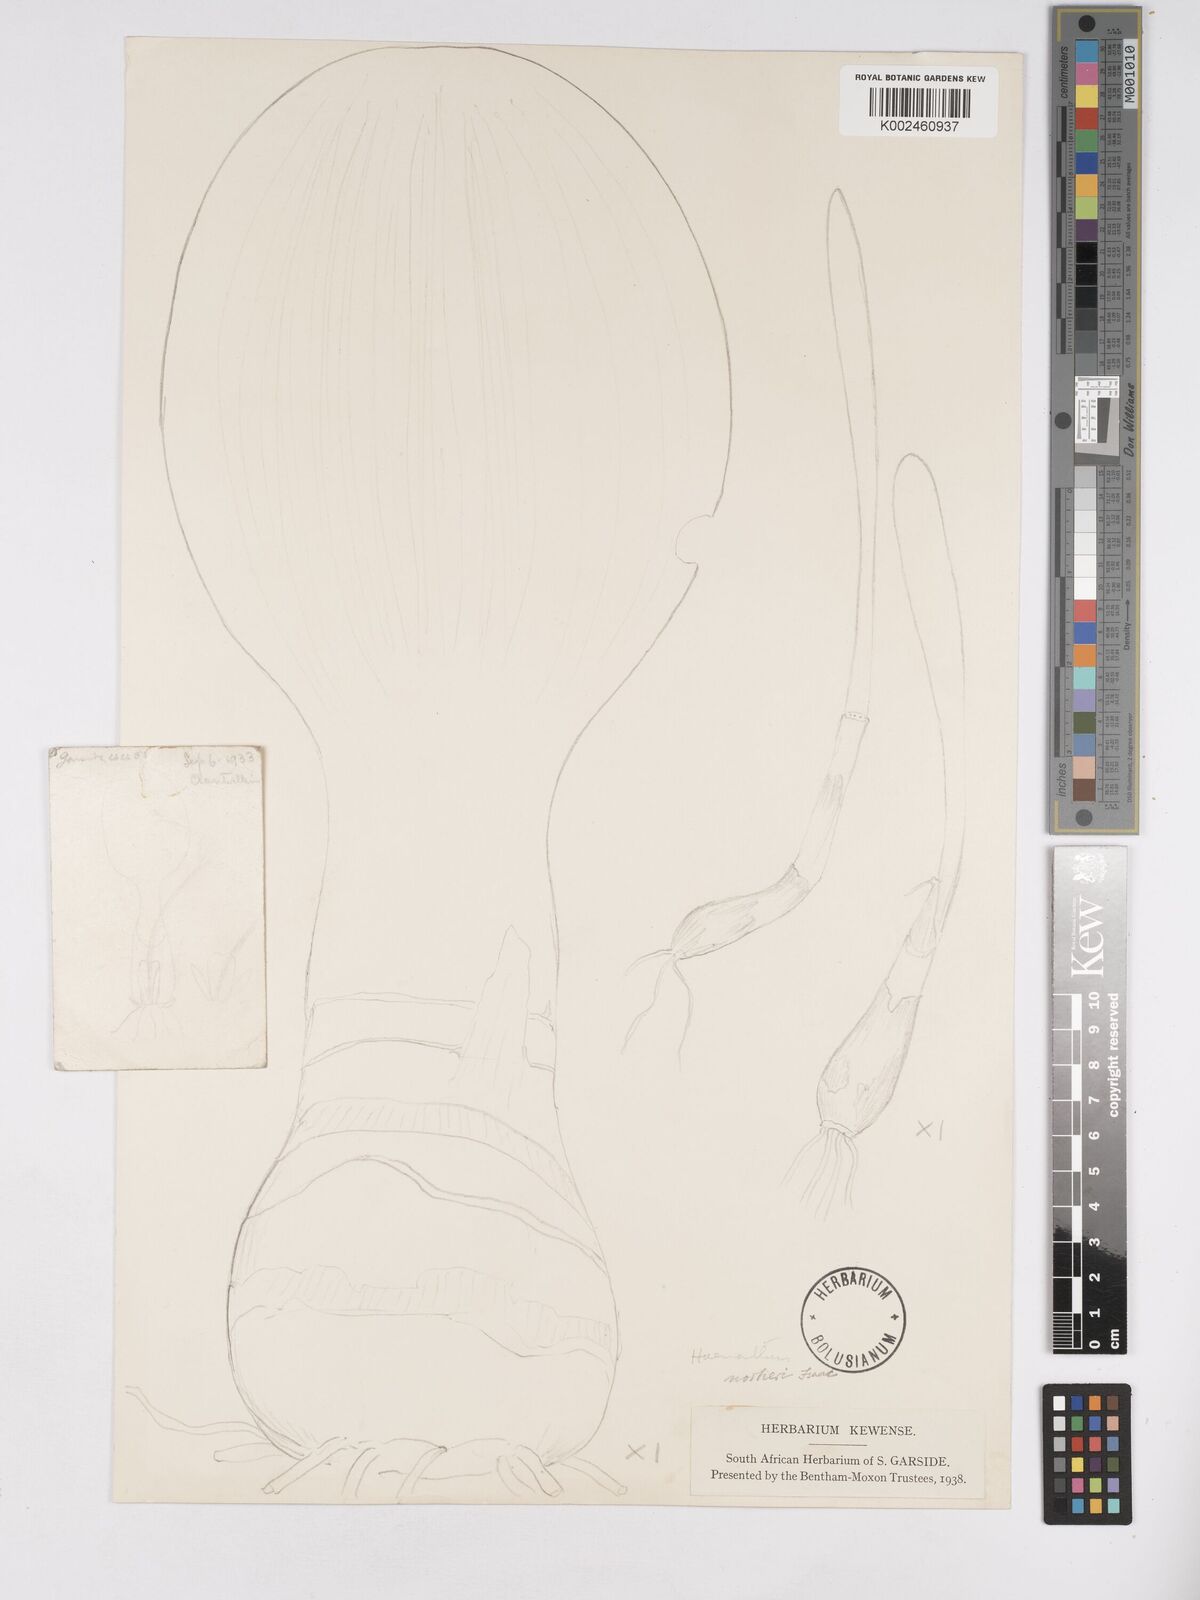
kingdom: Plantae
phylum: Tracheophyta
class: Liliopsida
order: Asparagales
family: Amaryllidaceae
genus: Haemanthus
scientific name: Haemanthus nortieri
